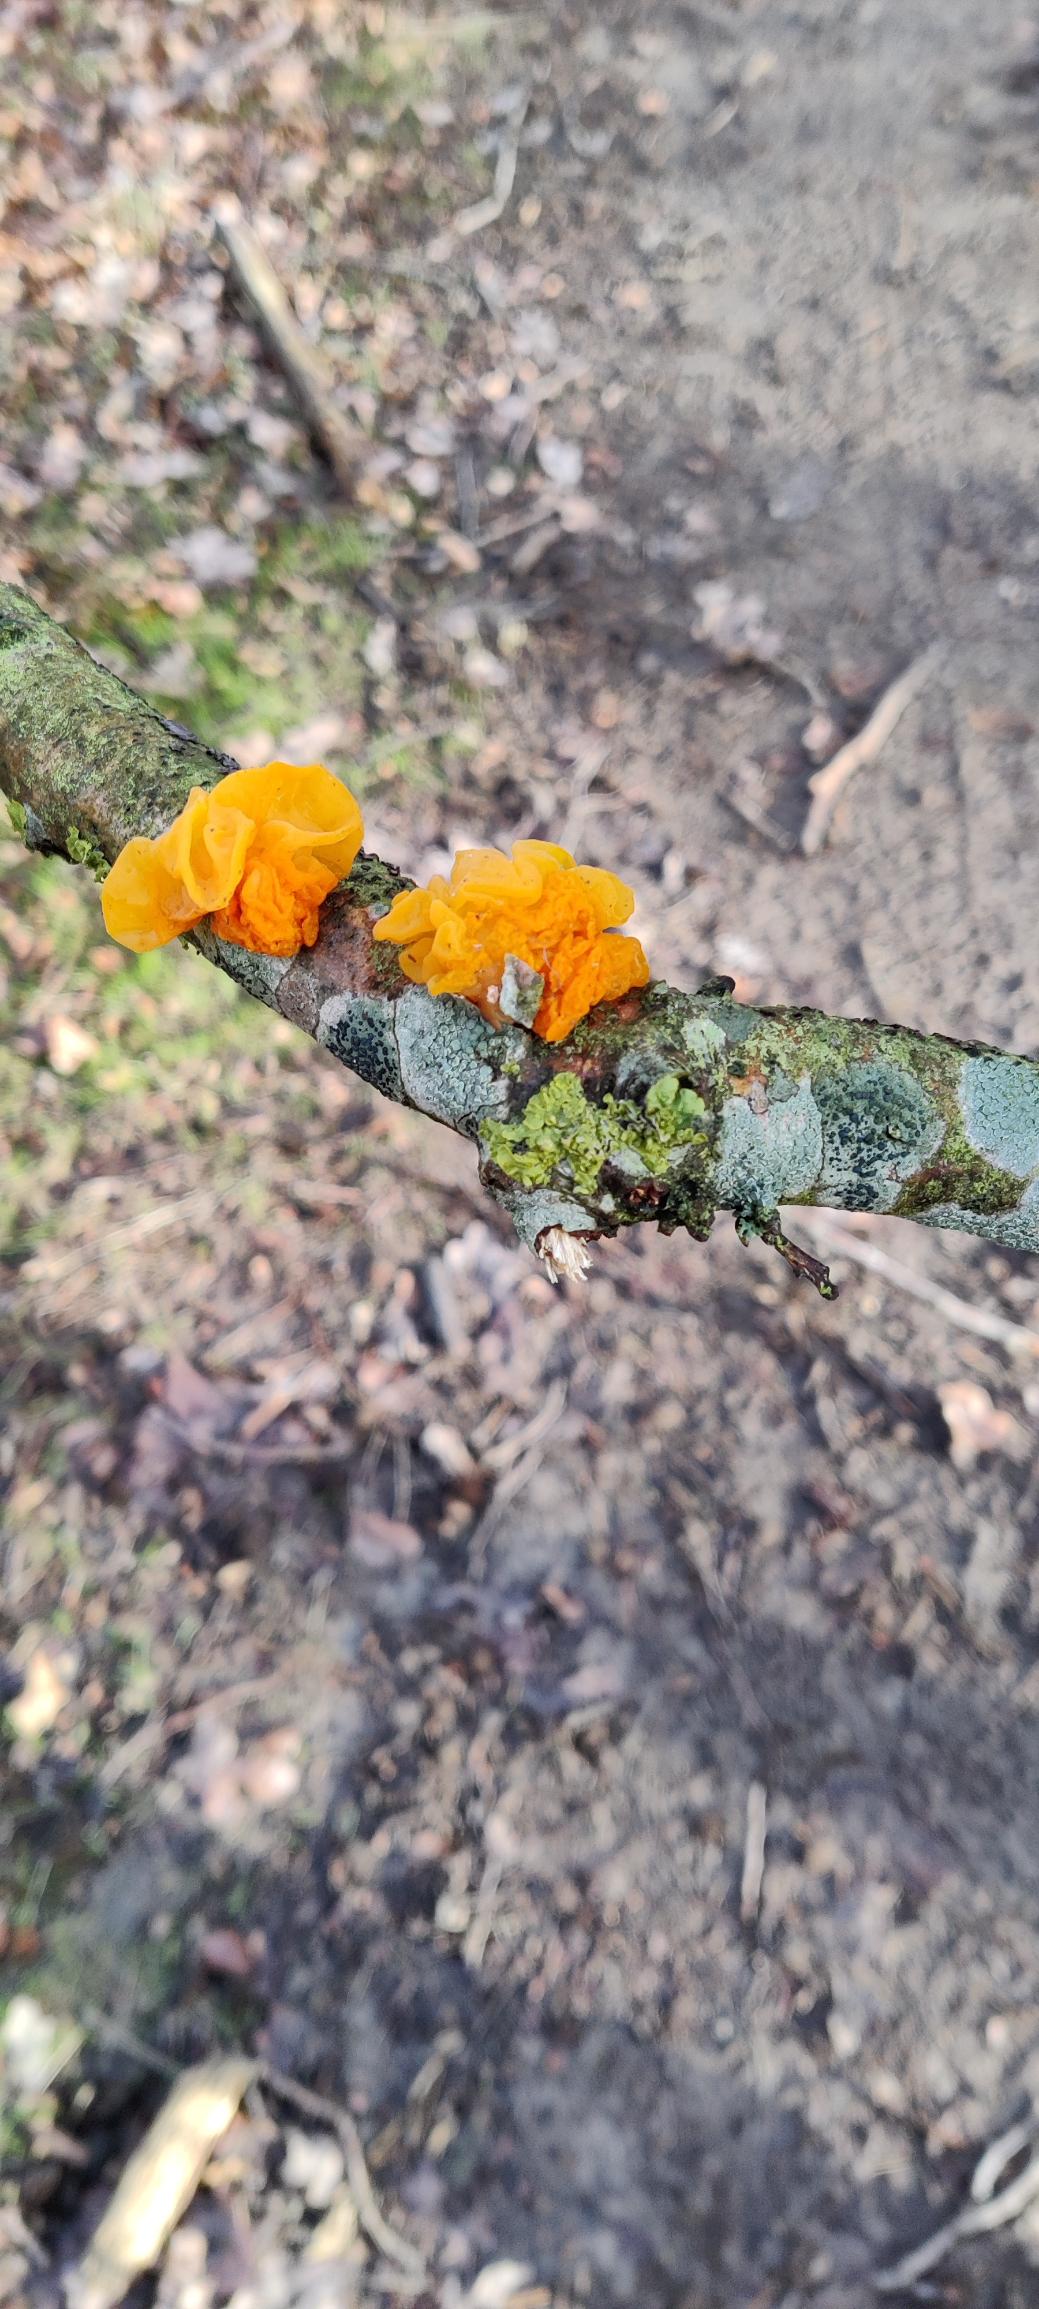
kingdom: Fungi
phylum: Basidiomycota
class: Tremellomycetes
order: Tremellales
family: Tremellaceae
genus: Tremella
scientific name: Tremella mesenterica
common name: Gul bævresvamp
